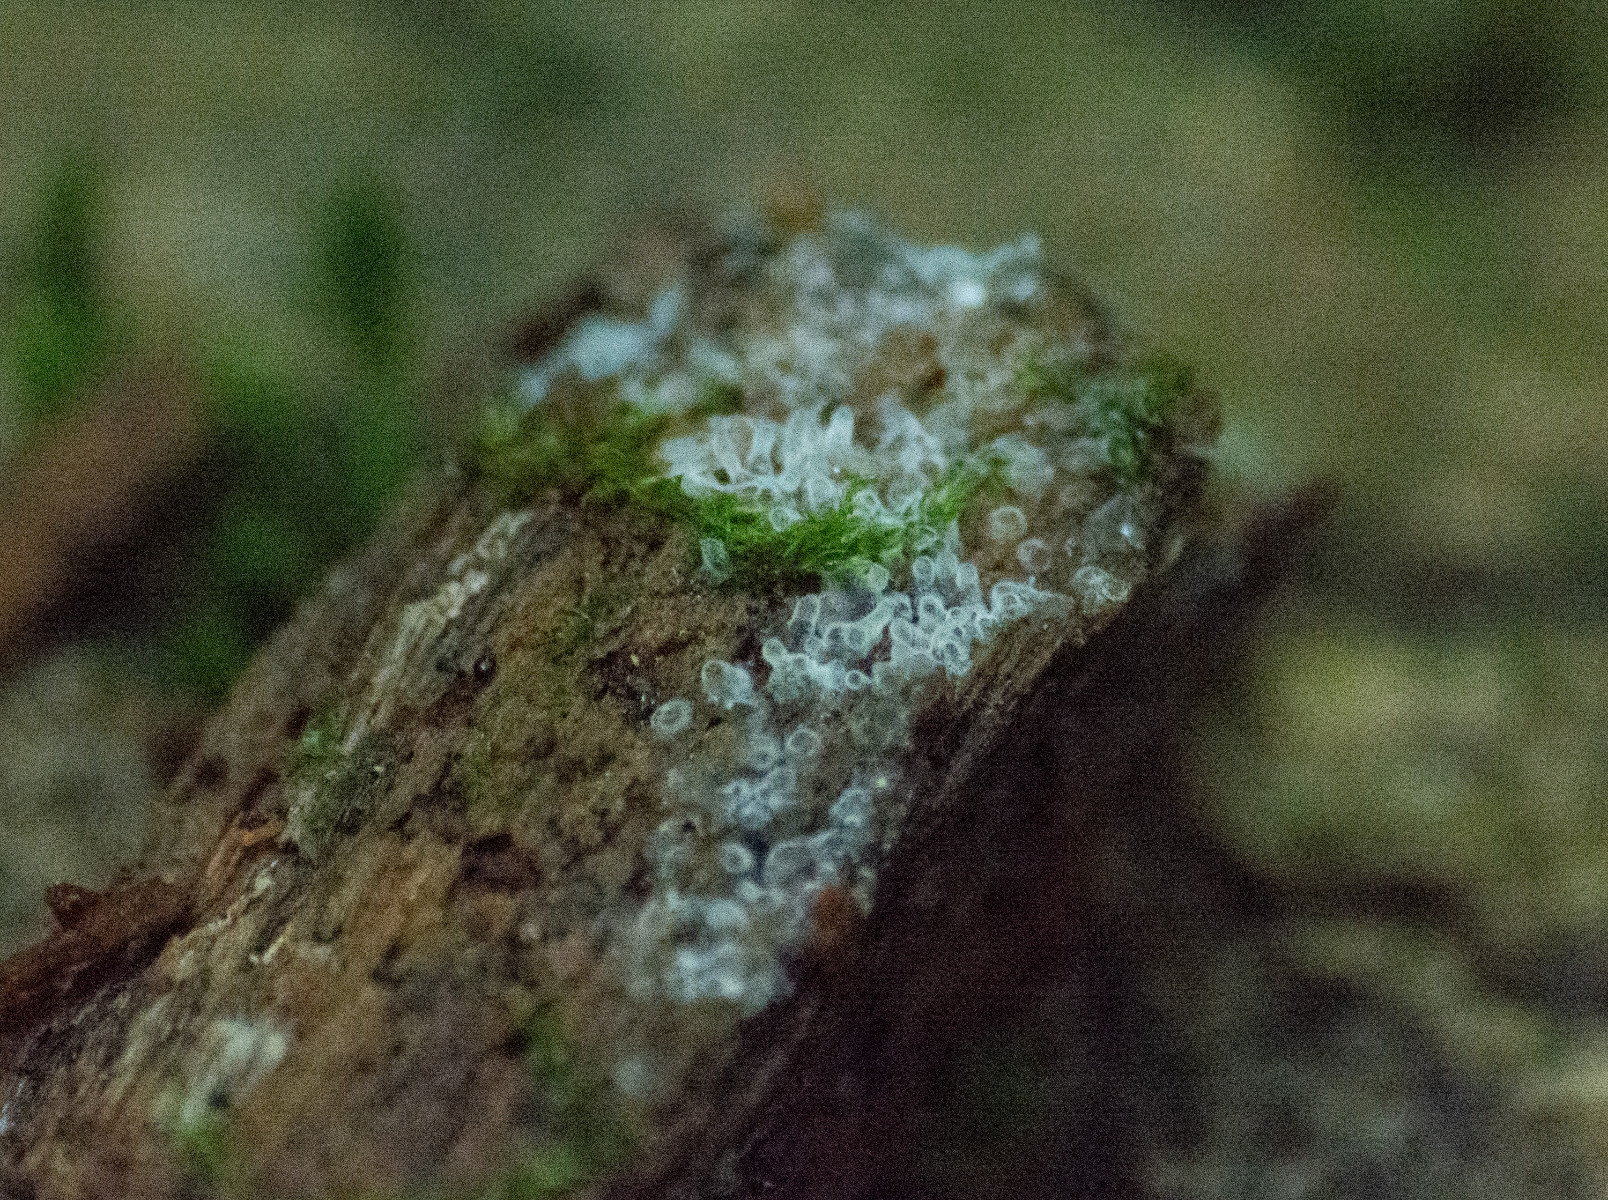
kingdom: Protozoa
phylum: Mycetozoa
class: Protosteliomycetes
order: Ceratiomyxales
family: Ceratiomyxaceae
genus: Ceratiomyxa
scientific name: Ceratiomyxa fruticulosa
